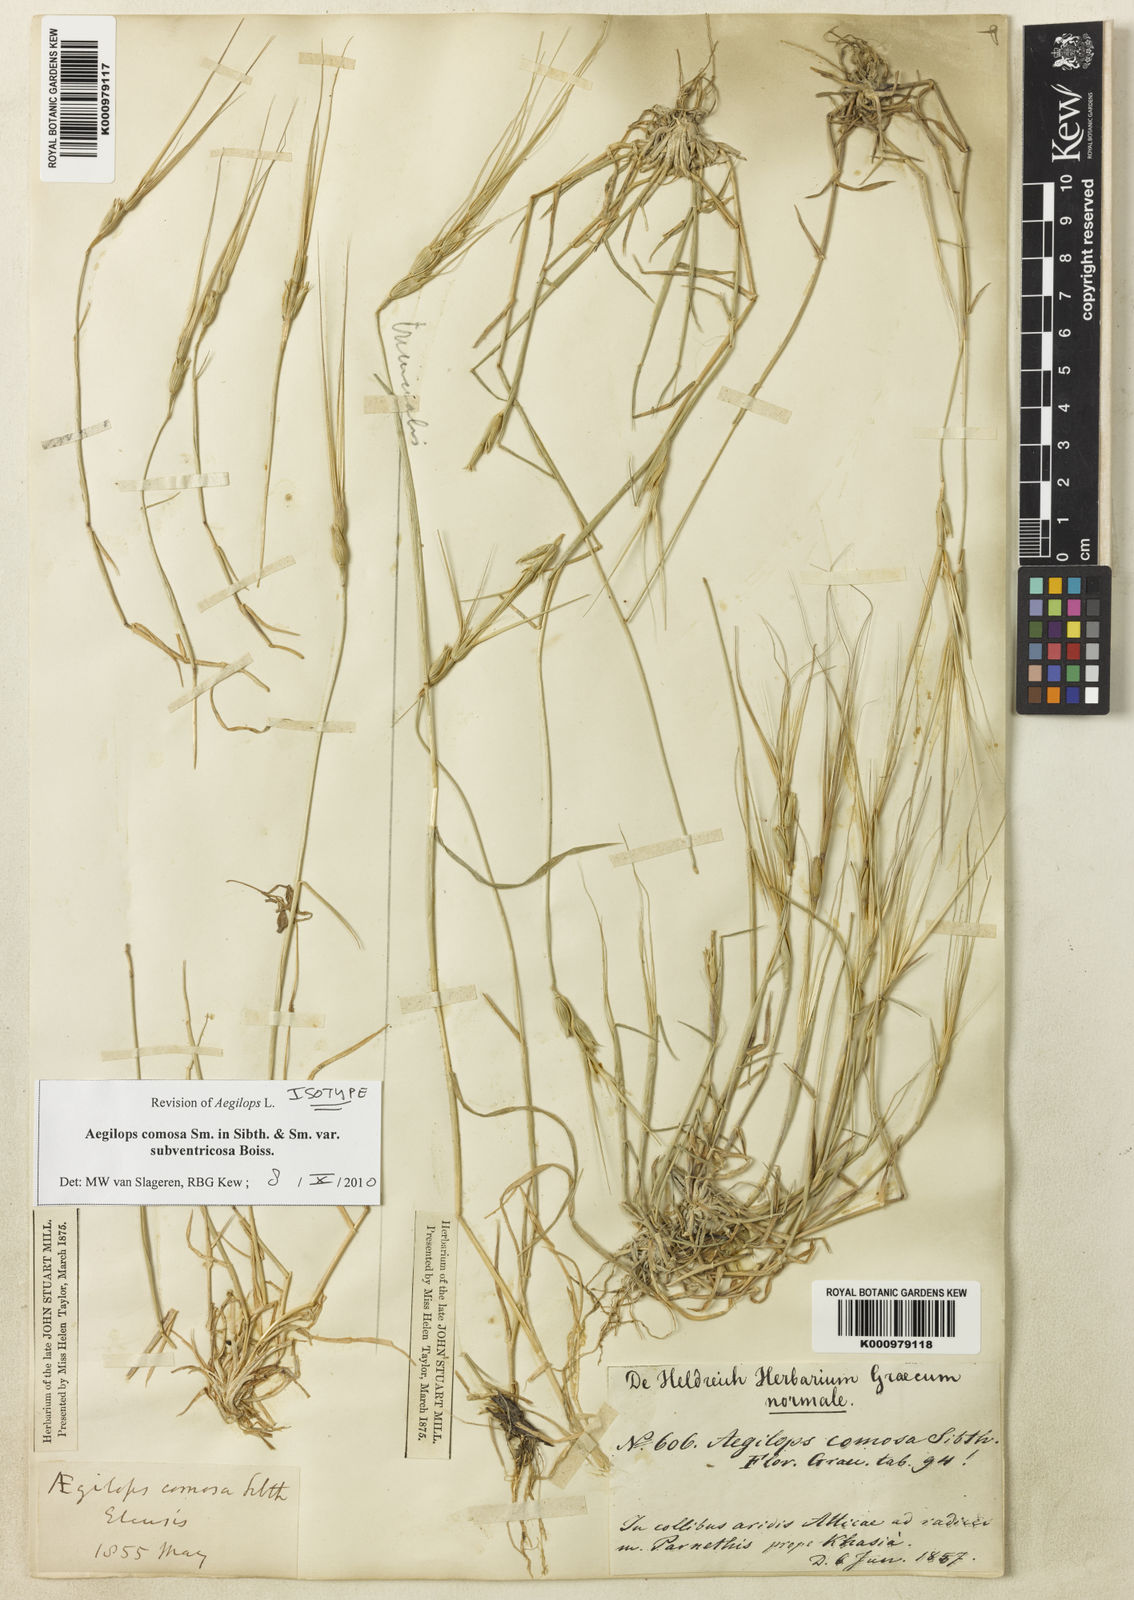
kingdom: Plantae
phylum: Tracheophyta
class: Liliopsida
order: Poales
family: Poaceae
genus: Aegilops
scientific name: Aegilops comosa
